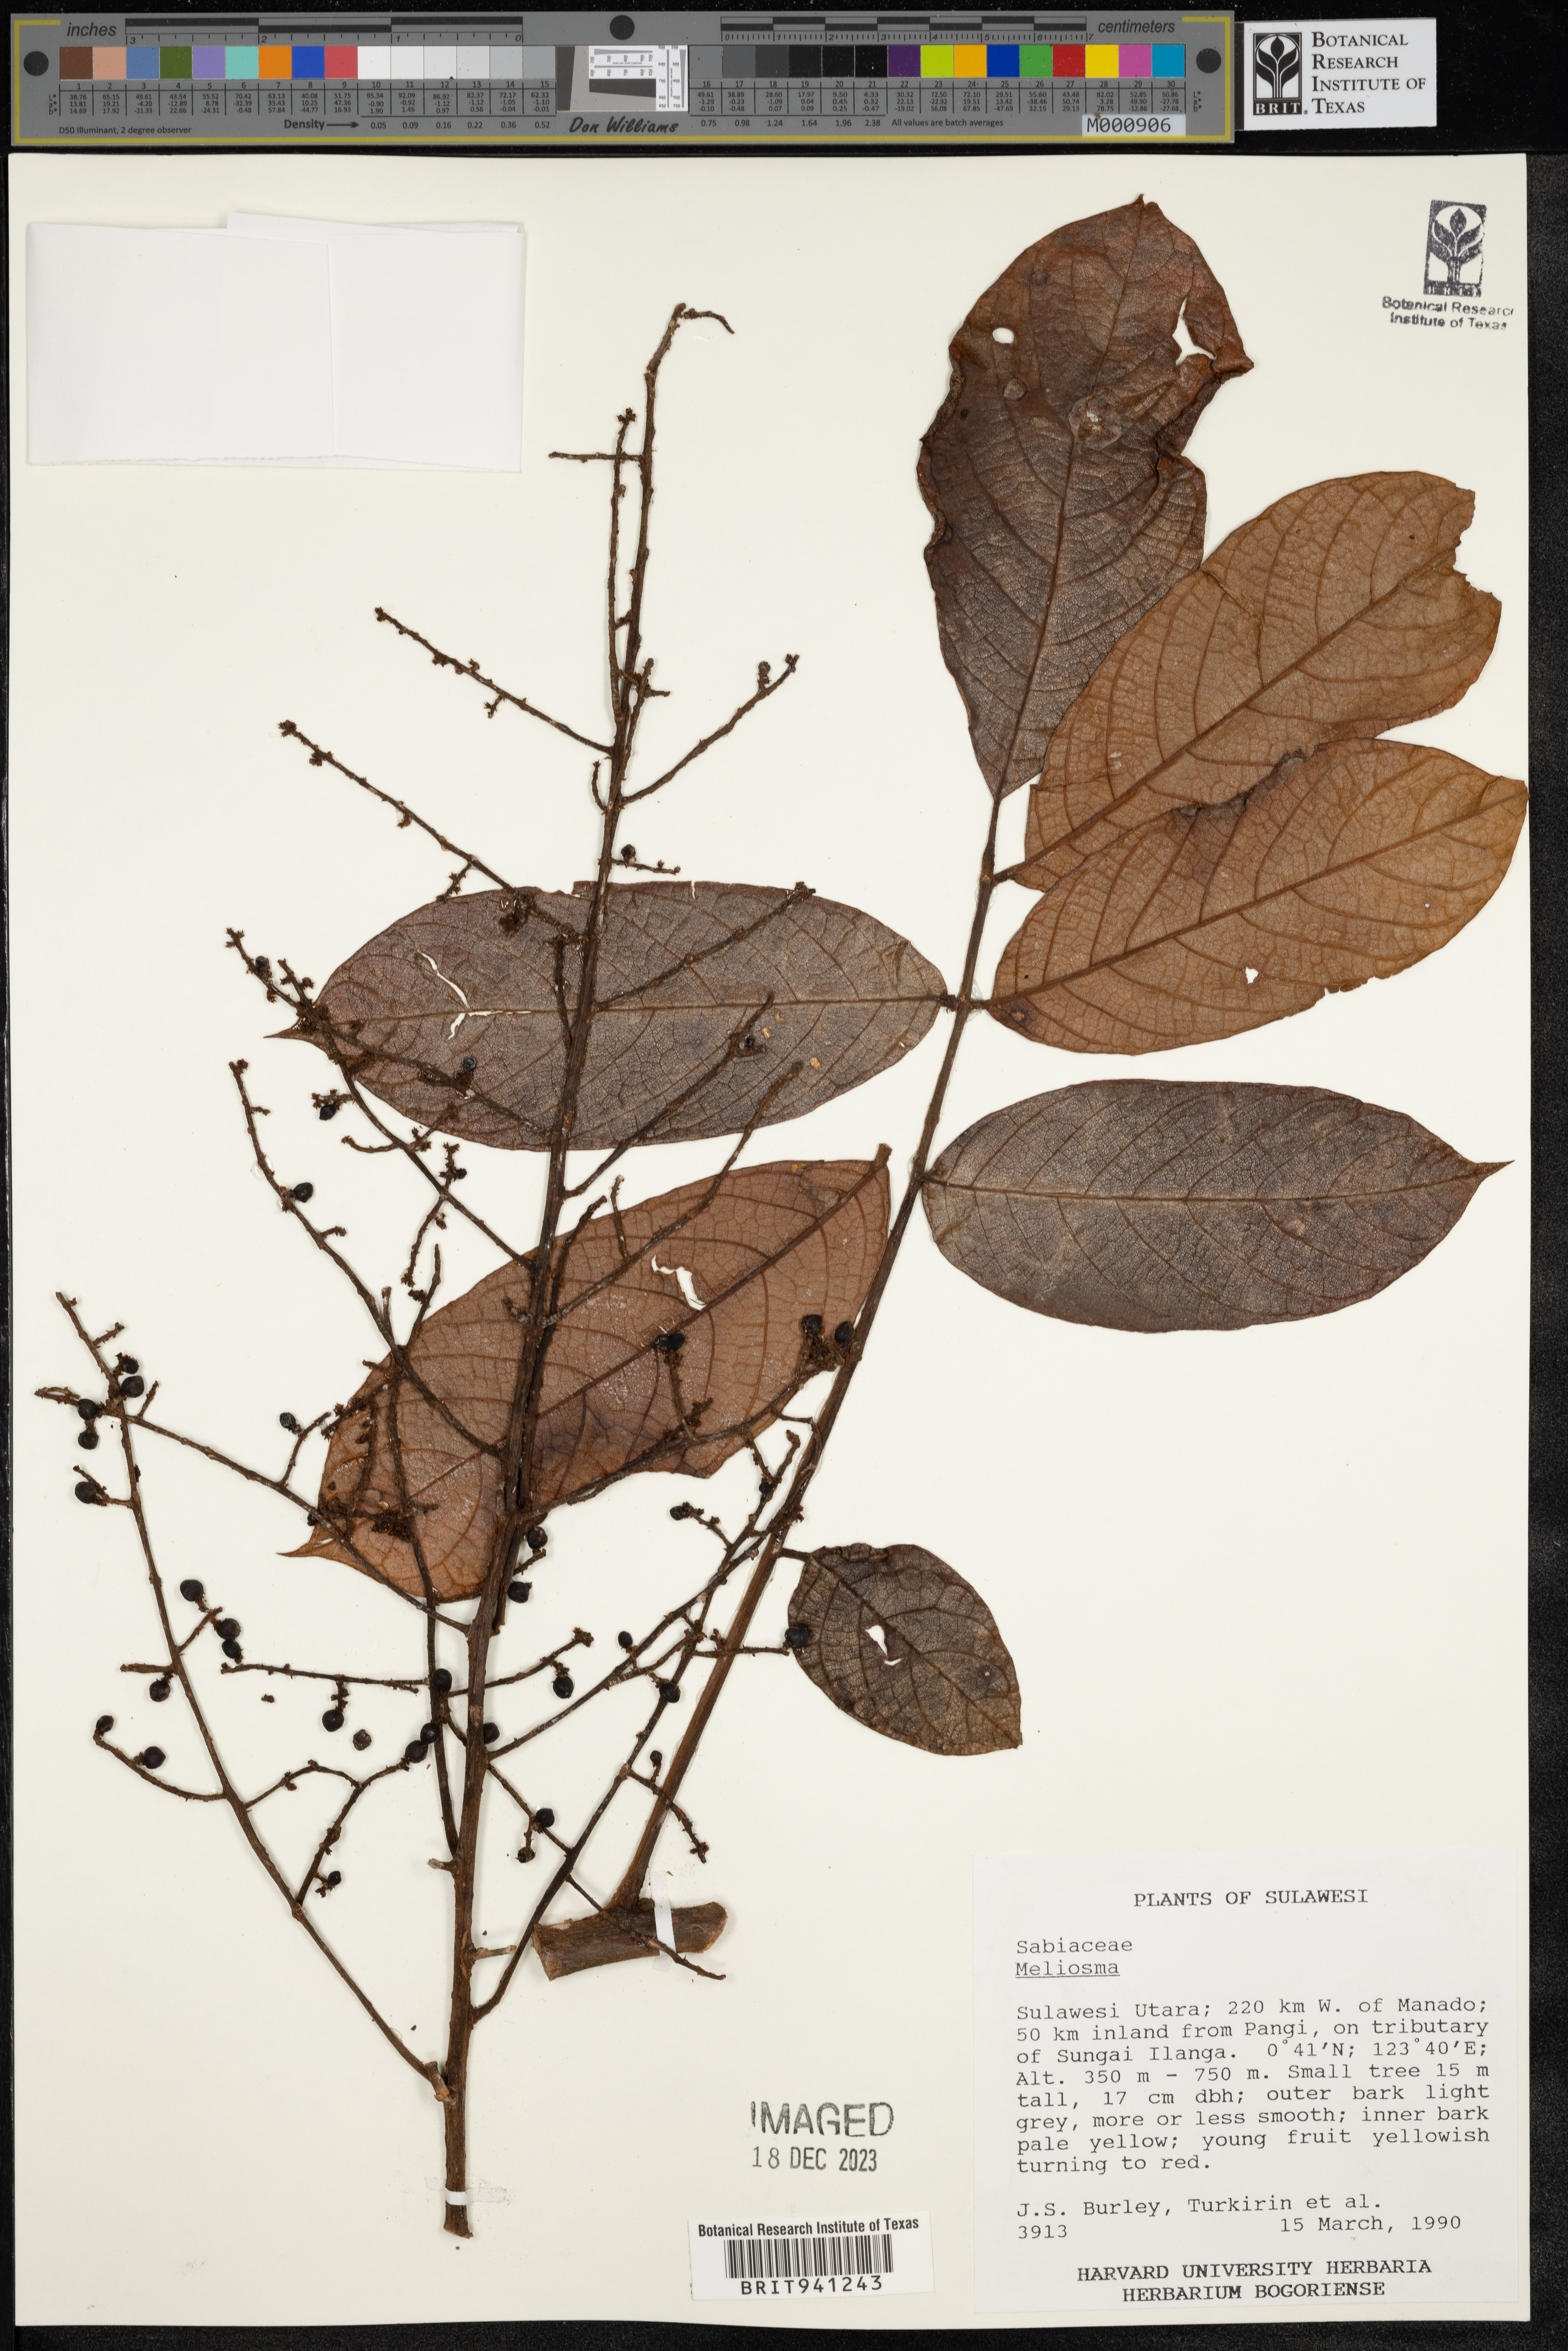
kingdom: Plantae
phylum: Tracheophyta
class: Magnoliopsida
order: Proteales
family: Sabiaceae
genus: Meliosma
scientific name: Meliosma
